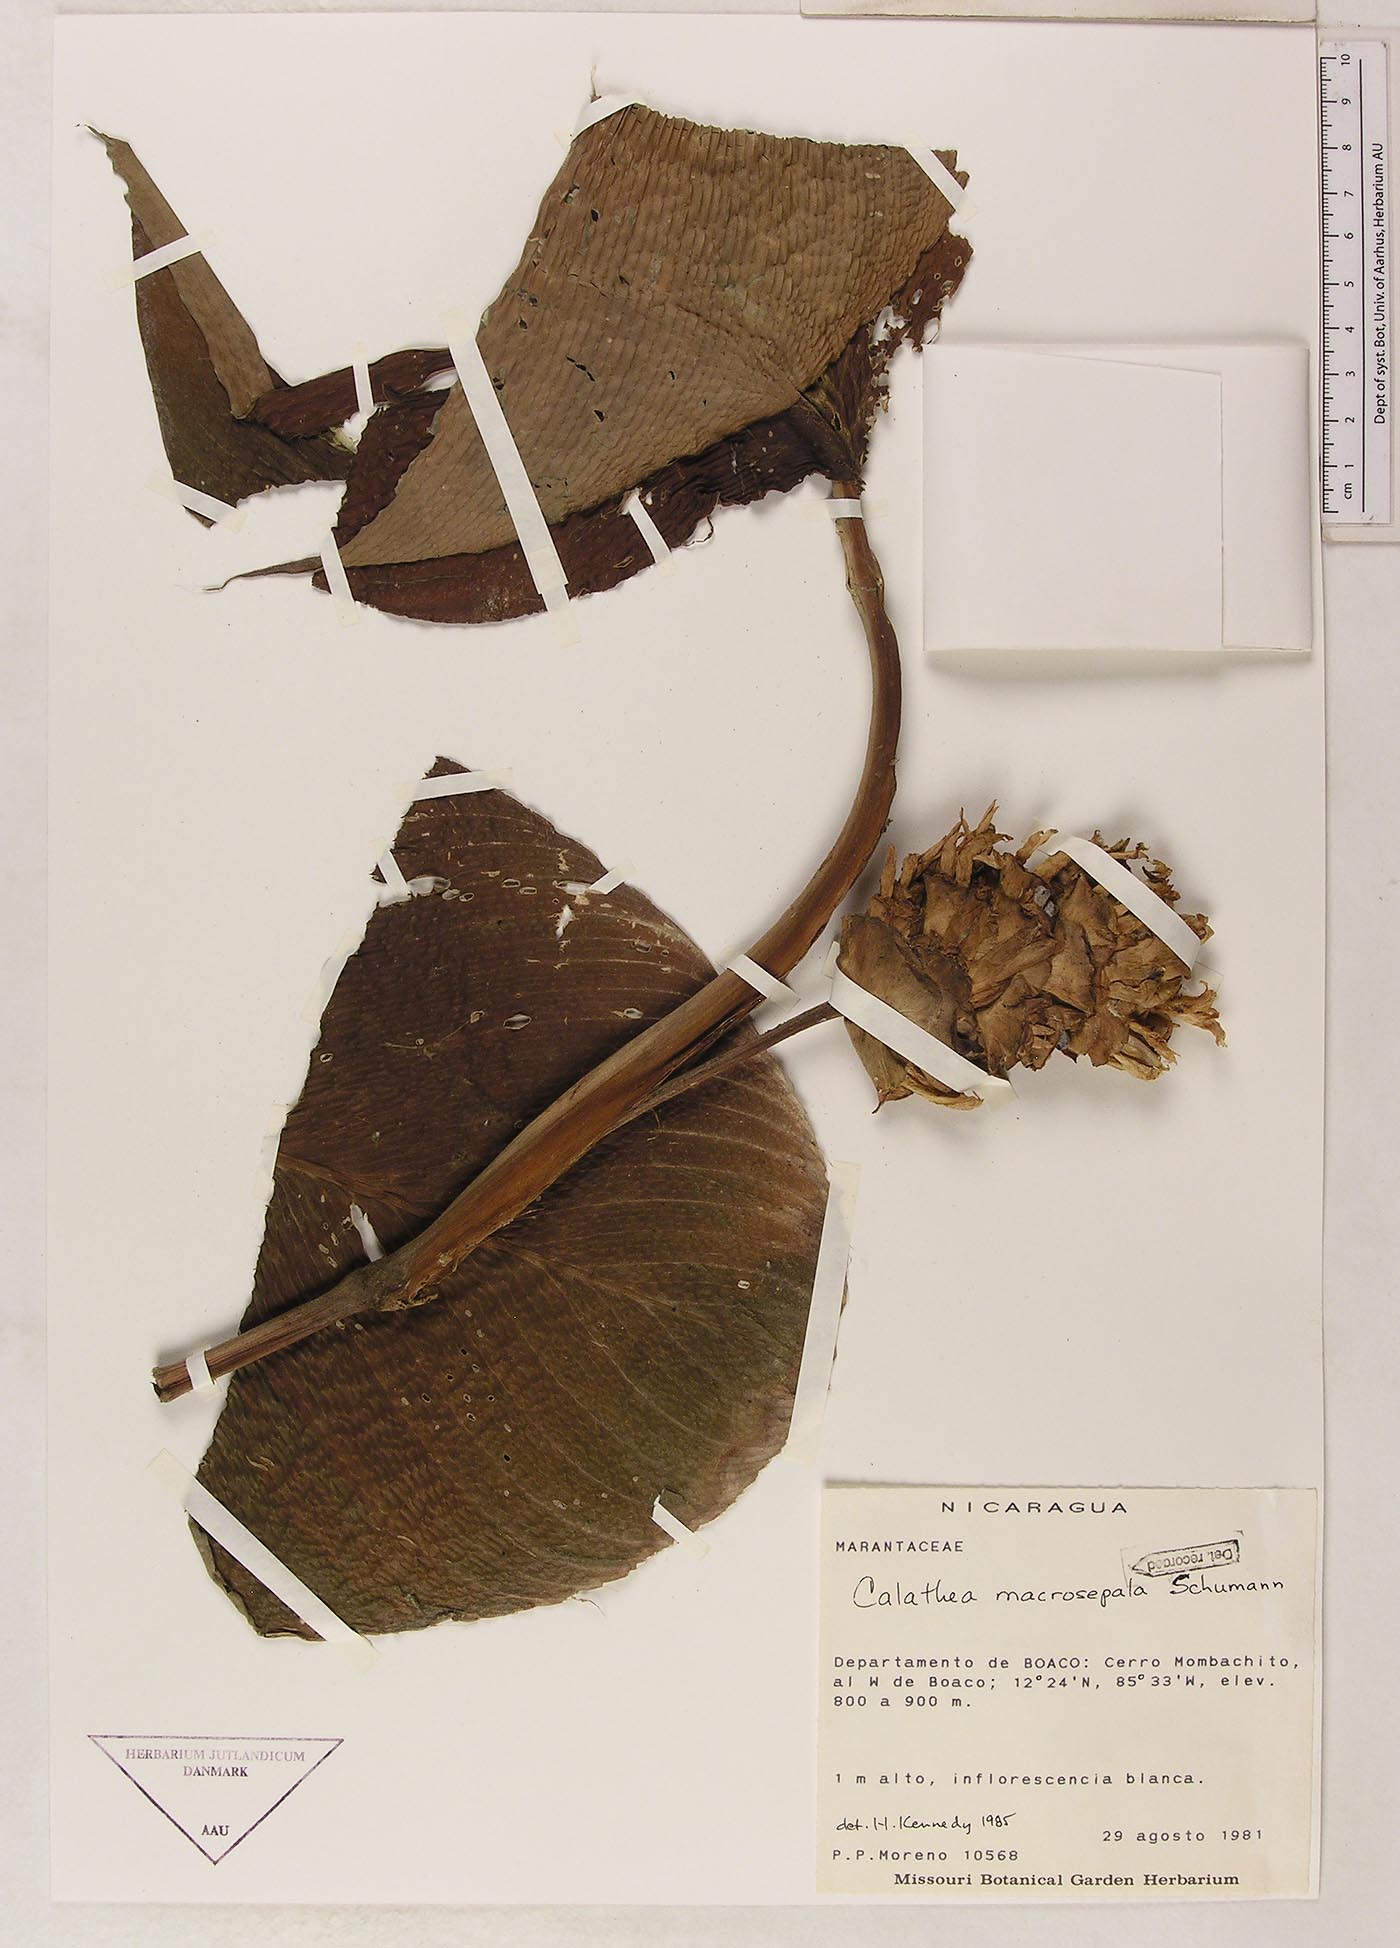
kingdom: Plantae
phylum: Tracheophyta
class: Liliopsida
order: Zingiberales
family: Marantaceae
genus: Goeppertia
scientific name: Goeppertia macrosepala
